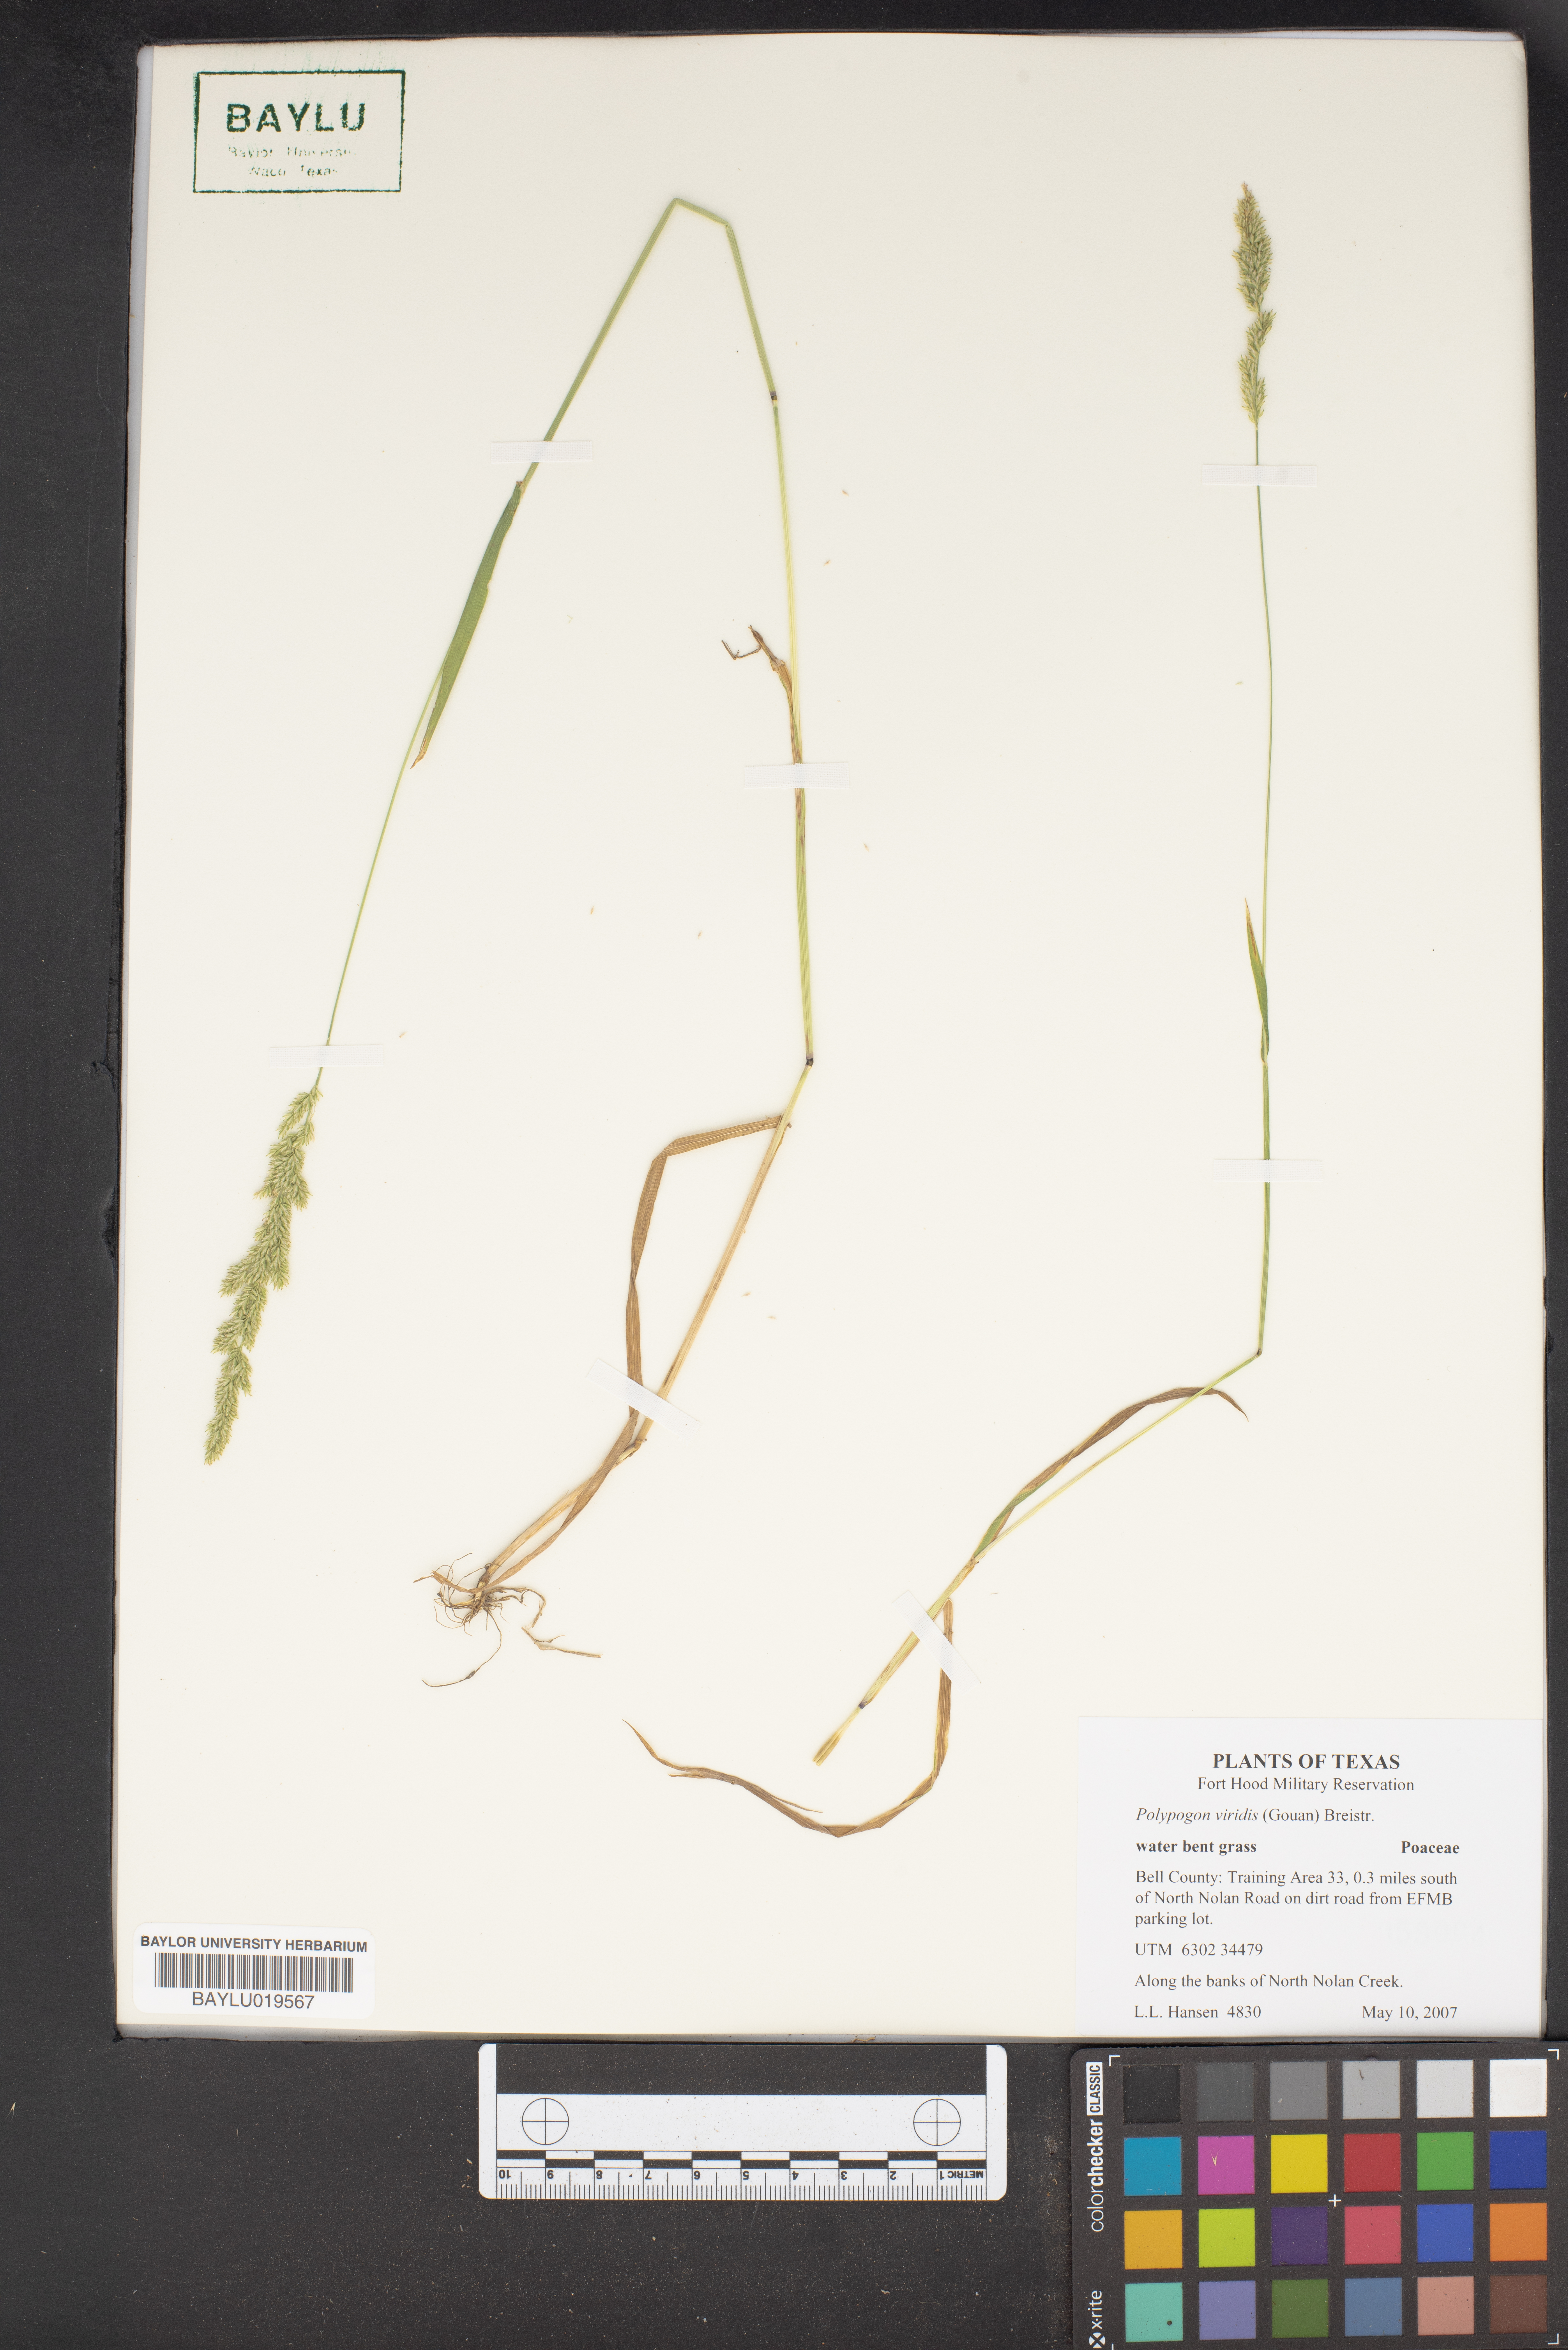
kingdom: Plantae
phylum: Tracheophyta
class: Liliopsida
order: Poales
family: Poaceae
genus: Polypogon
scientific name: Polypogon viridis
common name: Water bent
